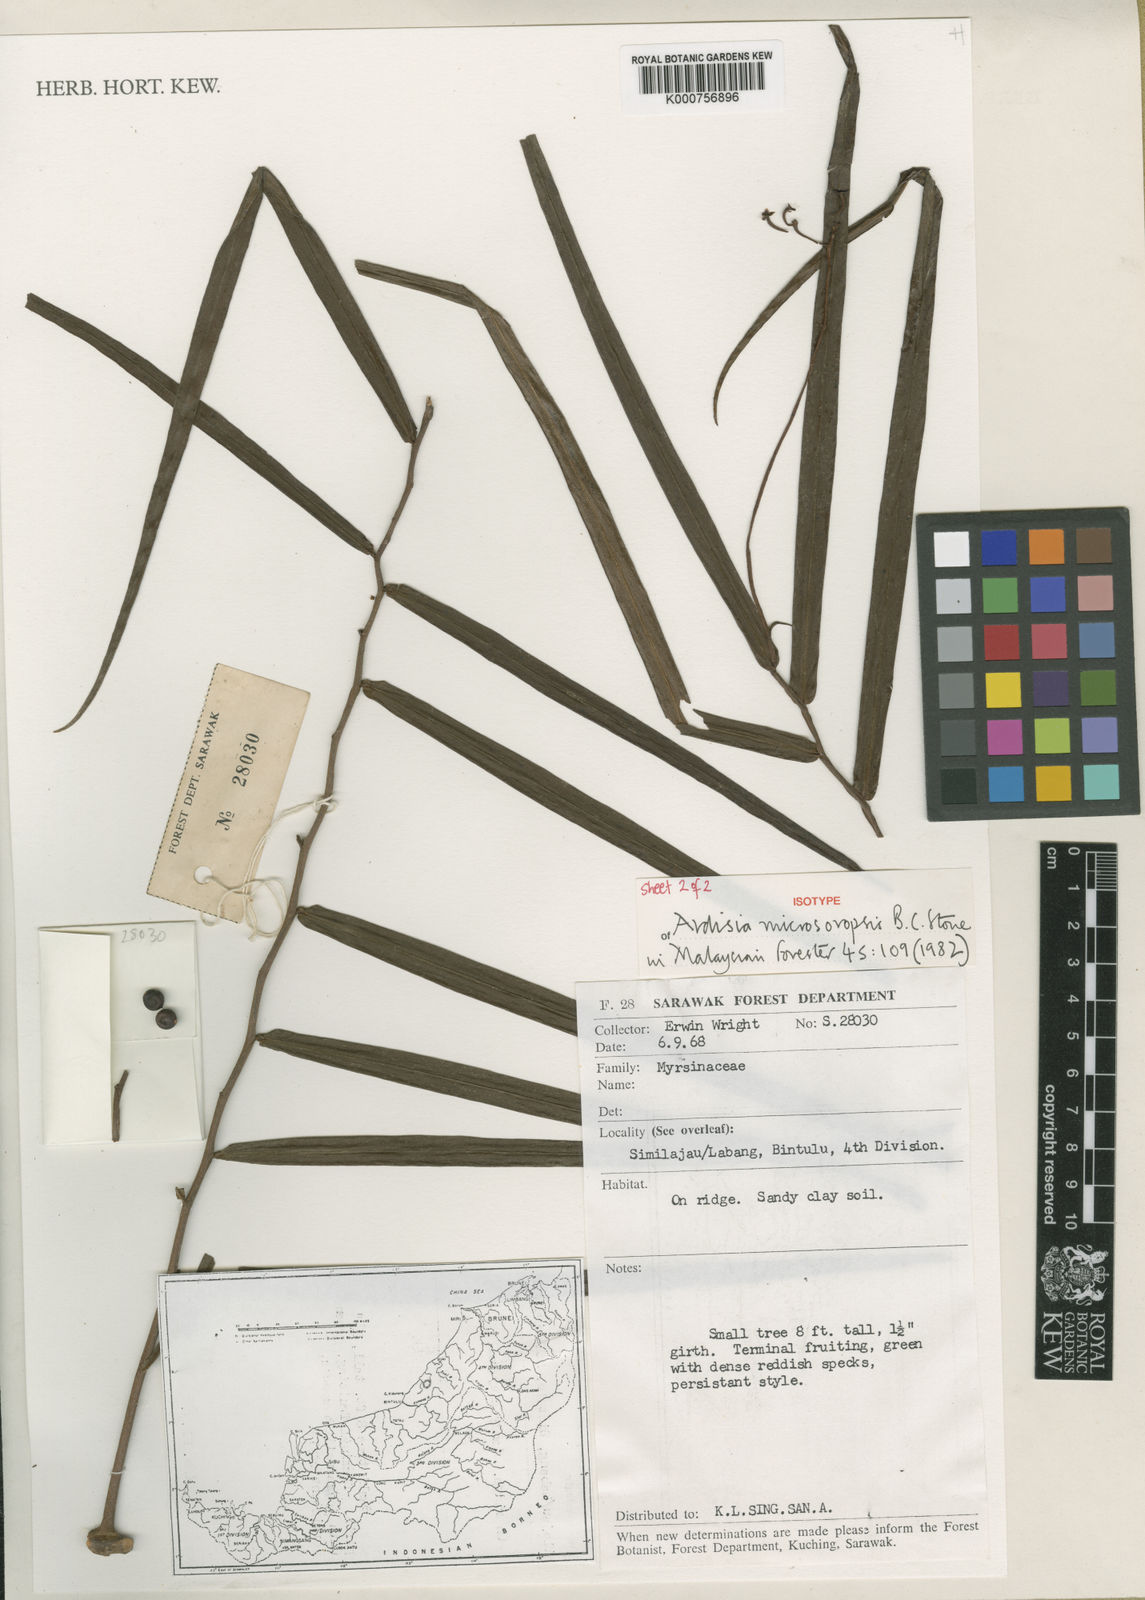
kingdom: Plantae
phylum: Tracheophyta
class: Magnoliopsida
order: Ericales
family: Primulaceae
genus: Ardisia
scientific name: Ardisia microsoropsis
